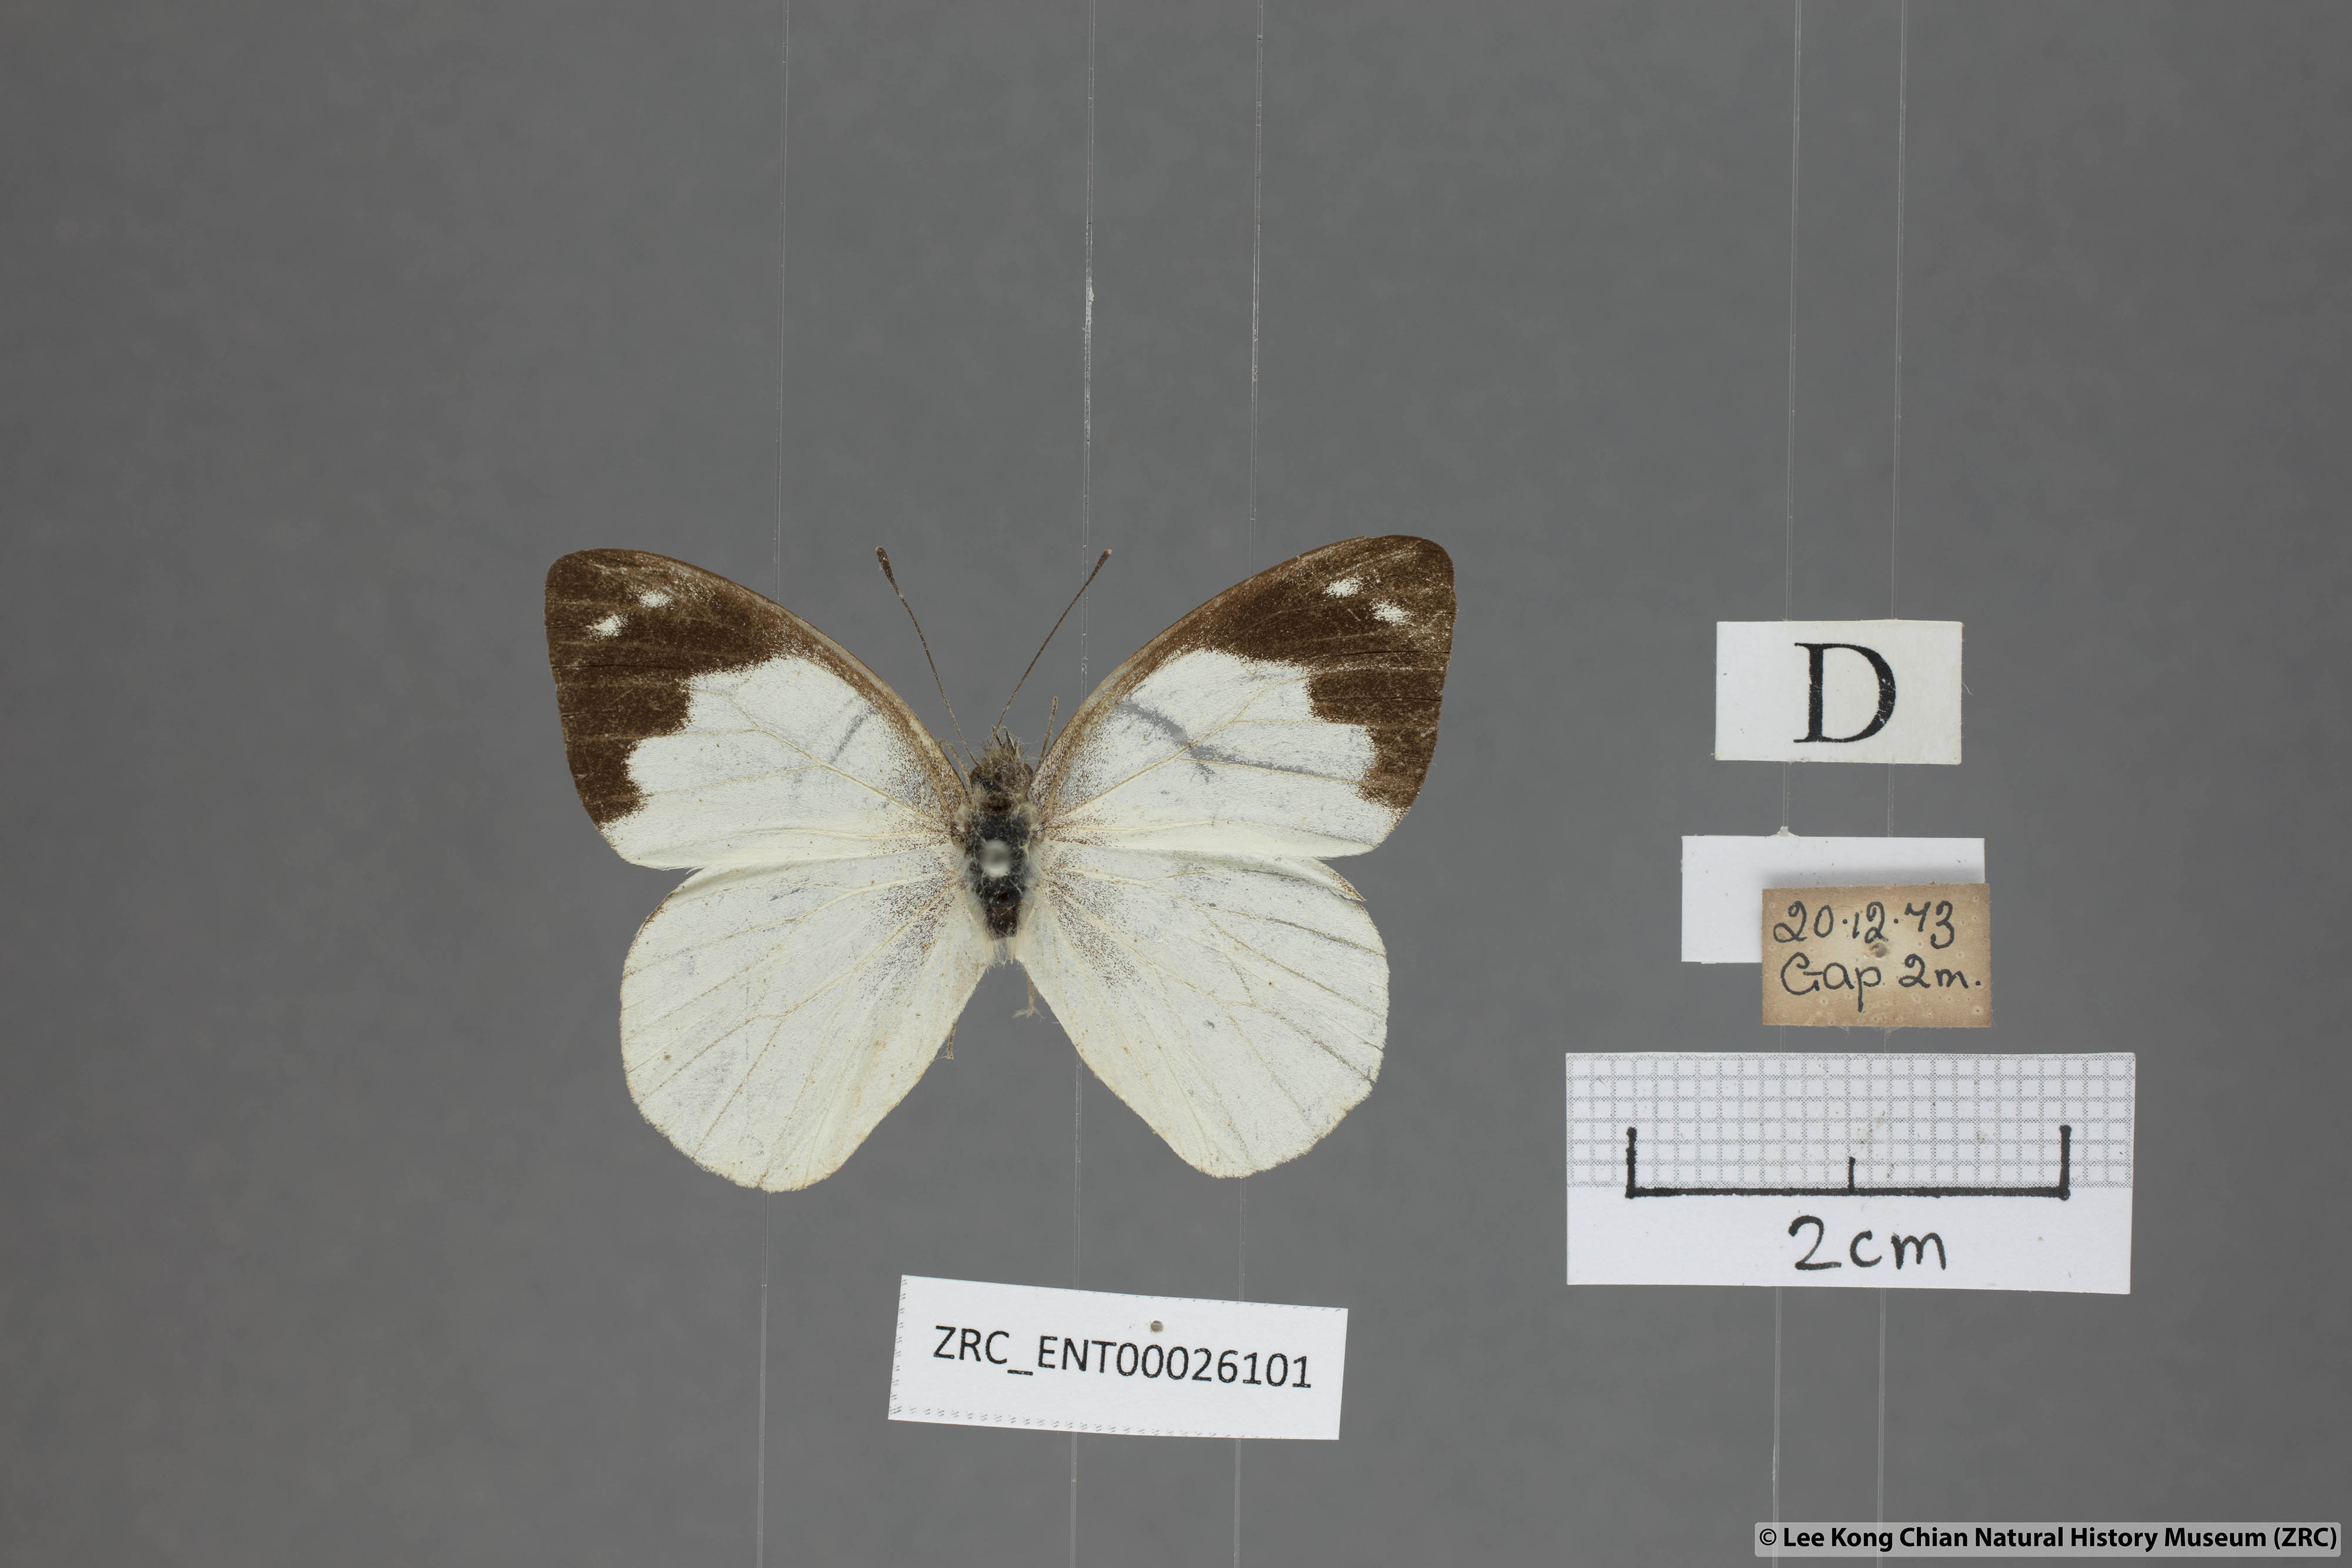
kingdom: Animalia
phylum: Arthropoda
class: Insecta
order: Lepidoptera
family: Pieridae
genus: Appias
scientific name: Appias indra
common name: Plain puffin
